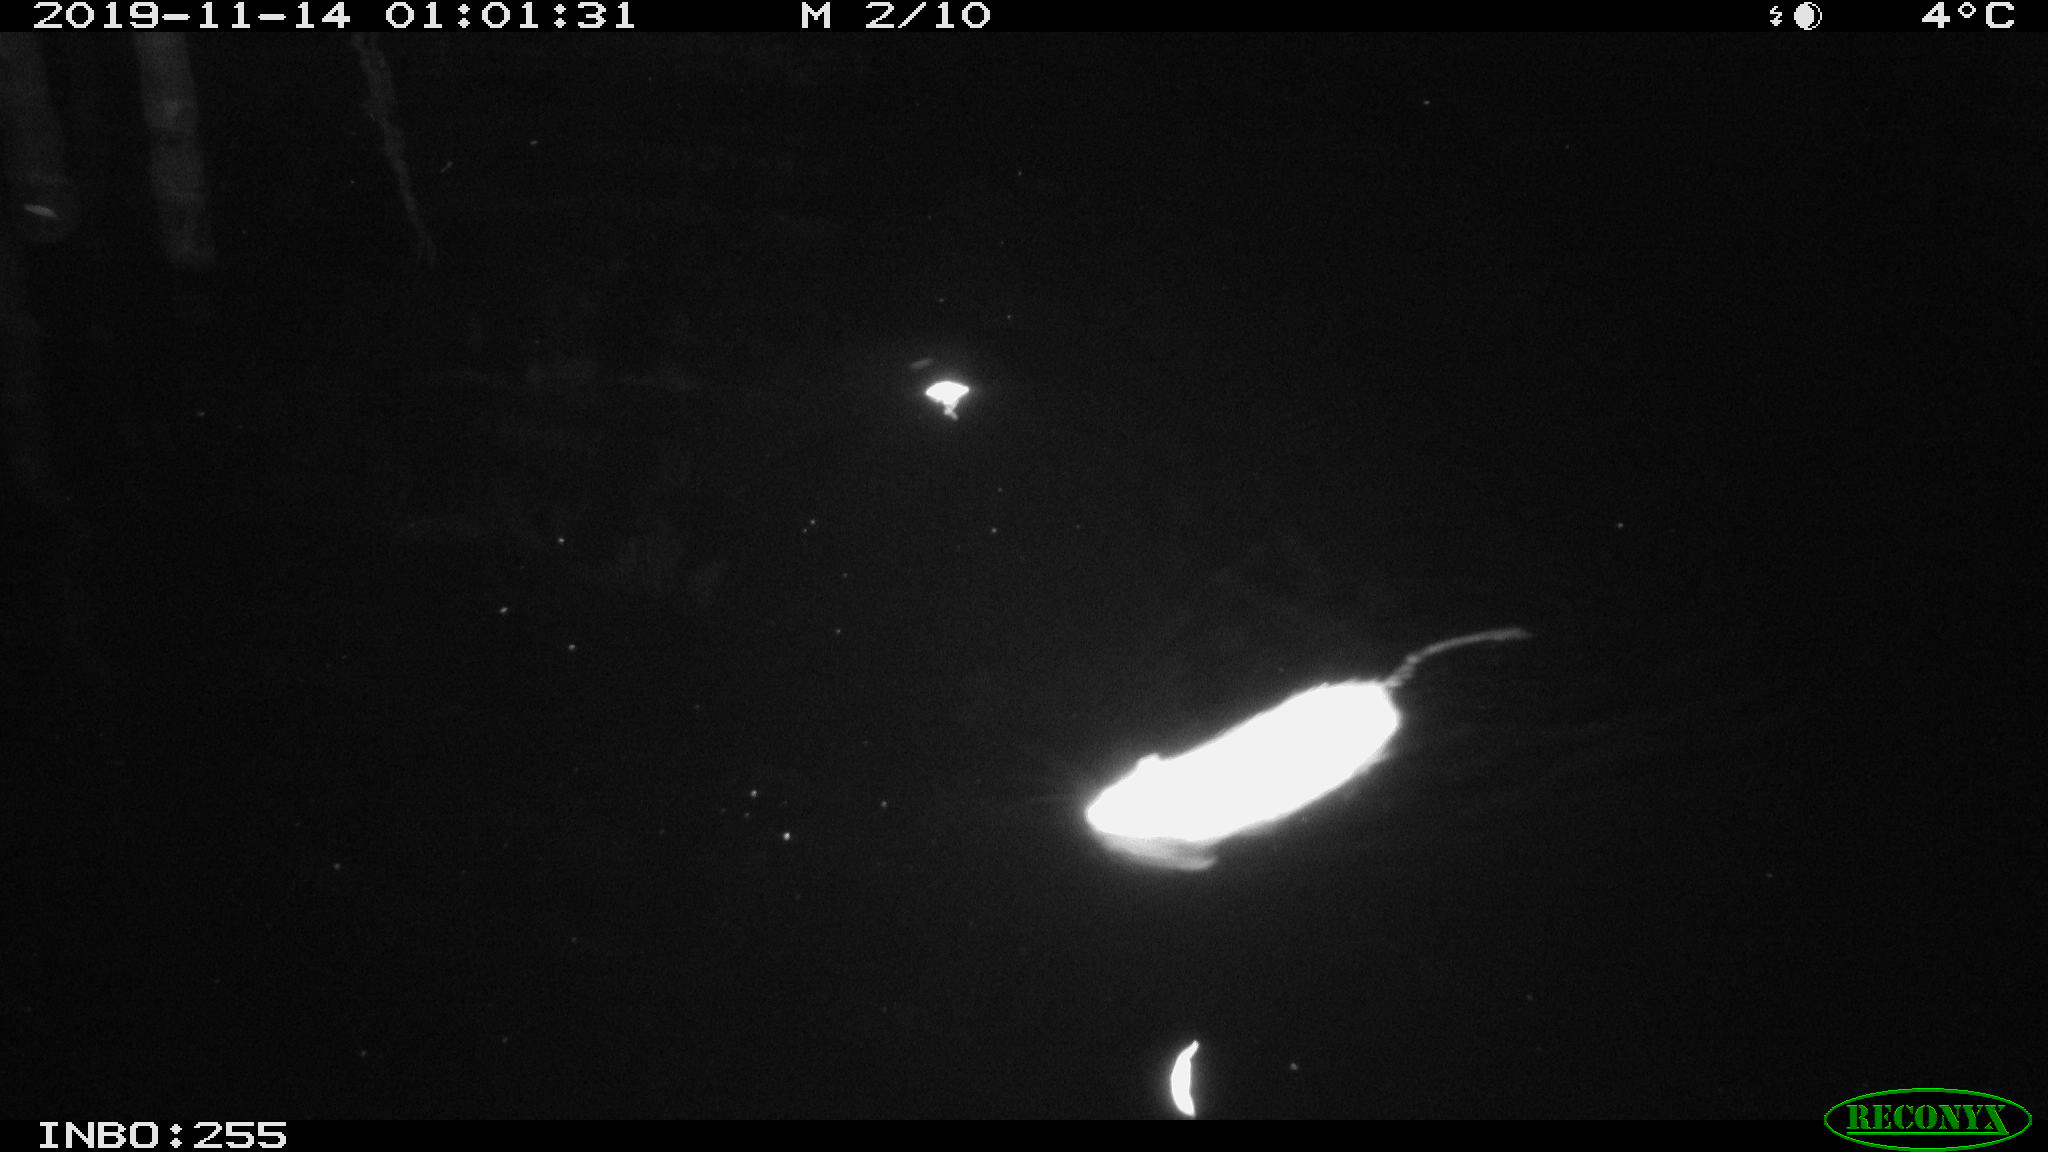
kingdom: Animalia
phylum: Chordata
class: Mammalia
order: Rodentia
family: Muridae
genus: Rattus
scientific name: Rattus norvegicus
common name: Brown rat
